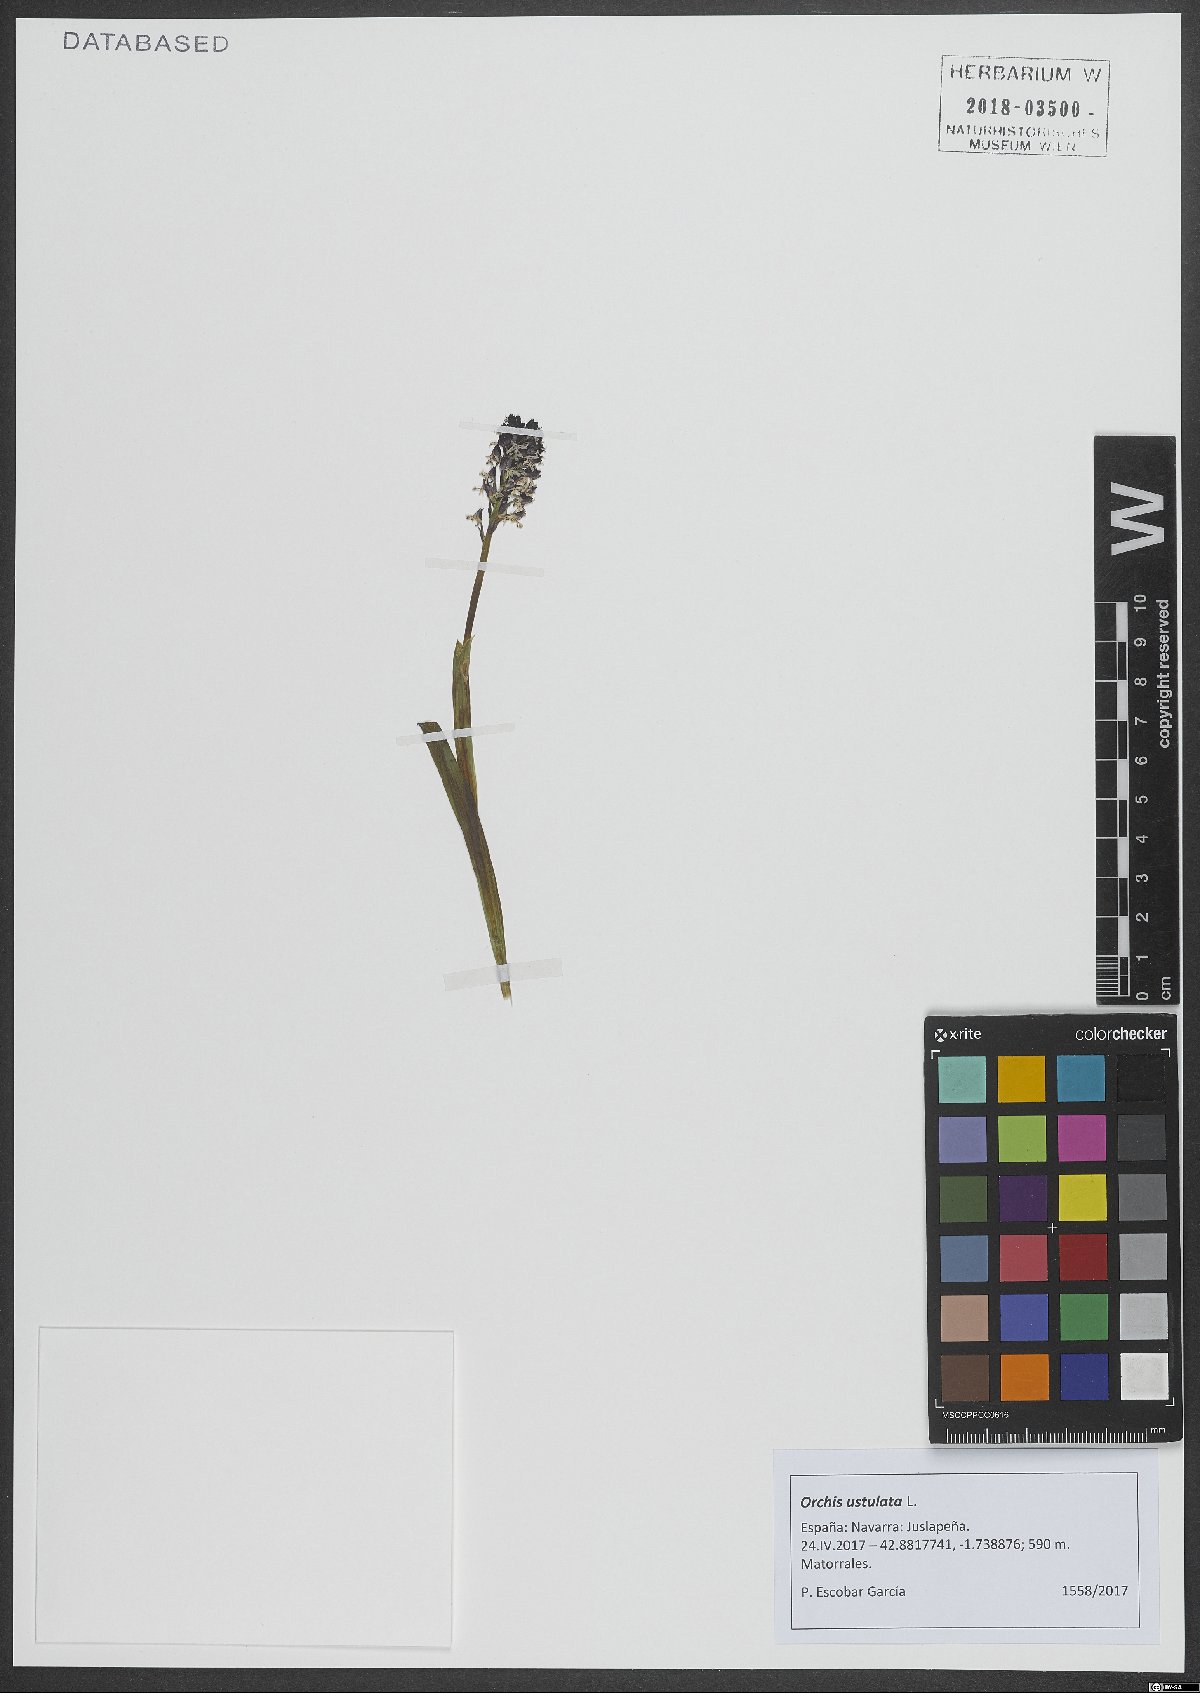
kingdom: Plantae
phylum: Tracheophyta
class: Liliopsida
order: Asparagales
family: Orchidaceae
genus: Neotinea
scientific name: Neotinea ustulata
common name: Burnt orchid
